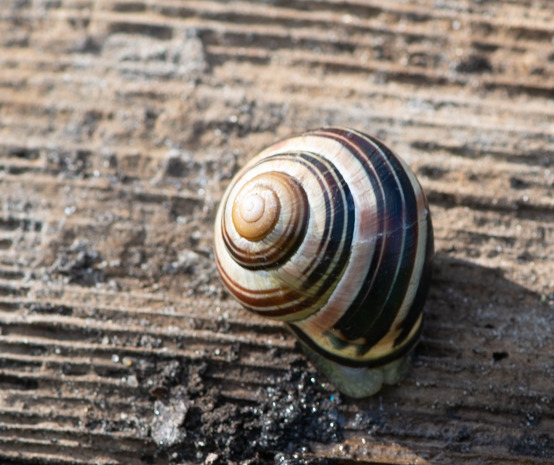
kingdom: Animalia
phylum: Mollusca
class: Gastropoda
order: Stylommatophora
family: Helicidae
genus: Cepaea
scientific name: Cepaea nemoralis
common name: Lundsnegl
